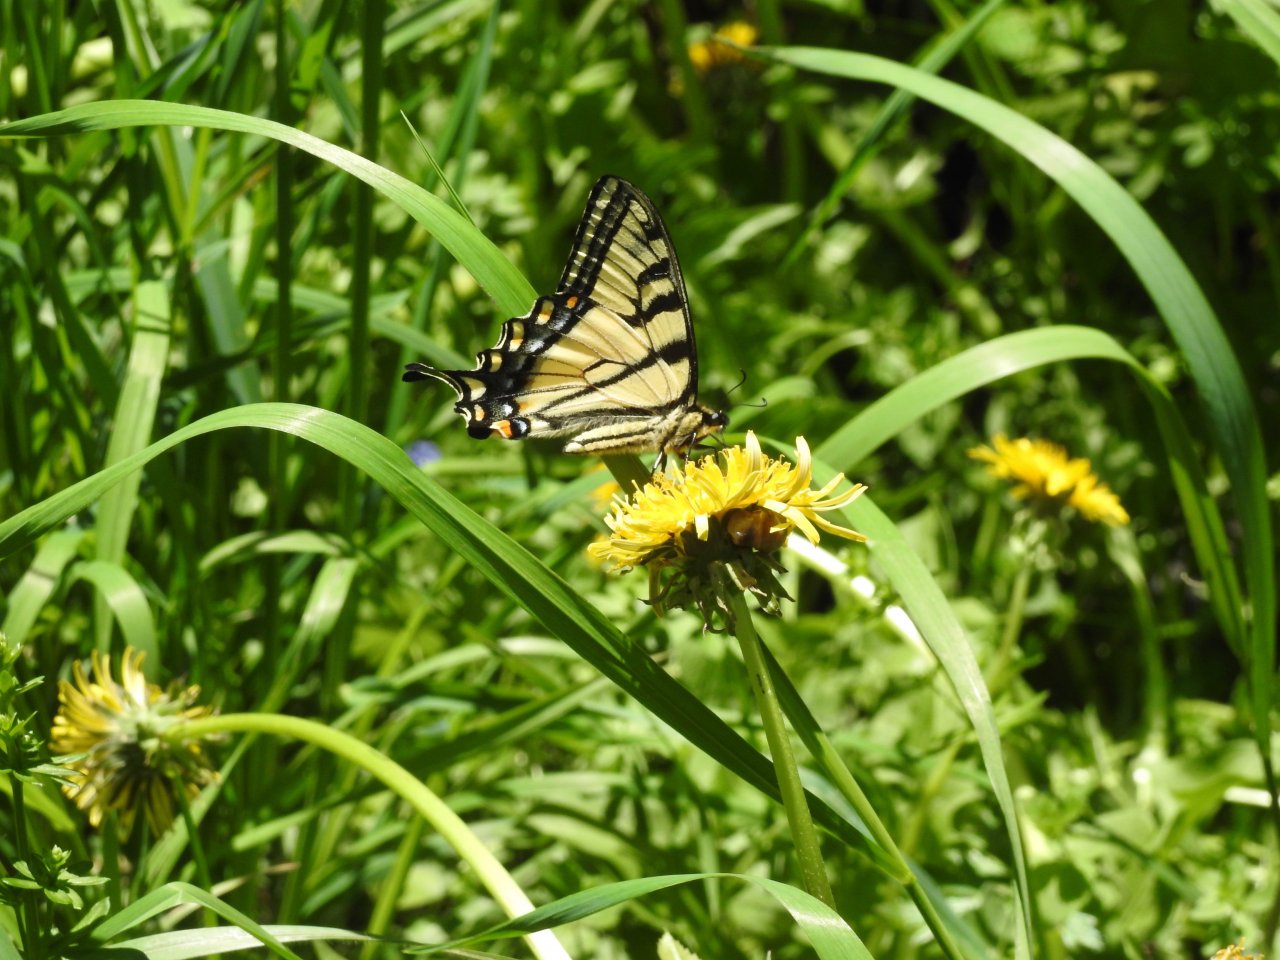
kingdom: Animalia
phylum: Arthropoda
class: Insecta
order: Lepidoptera
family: Papilionidae
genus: Pterourus
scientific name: Pterourus canadensis
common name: Canadian Tiger Swallowtail
